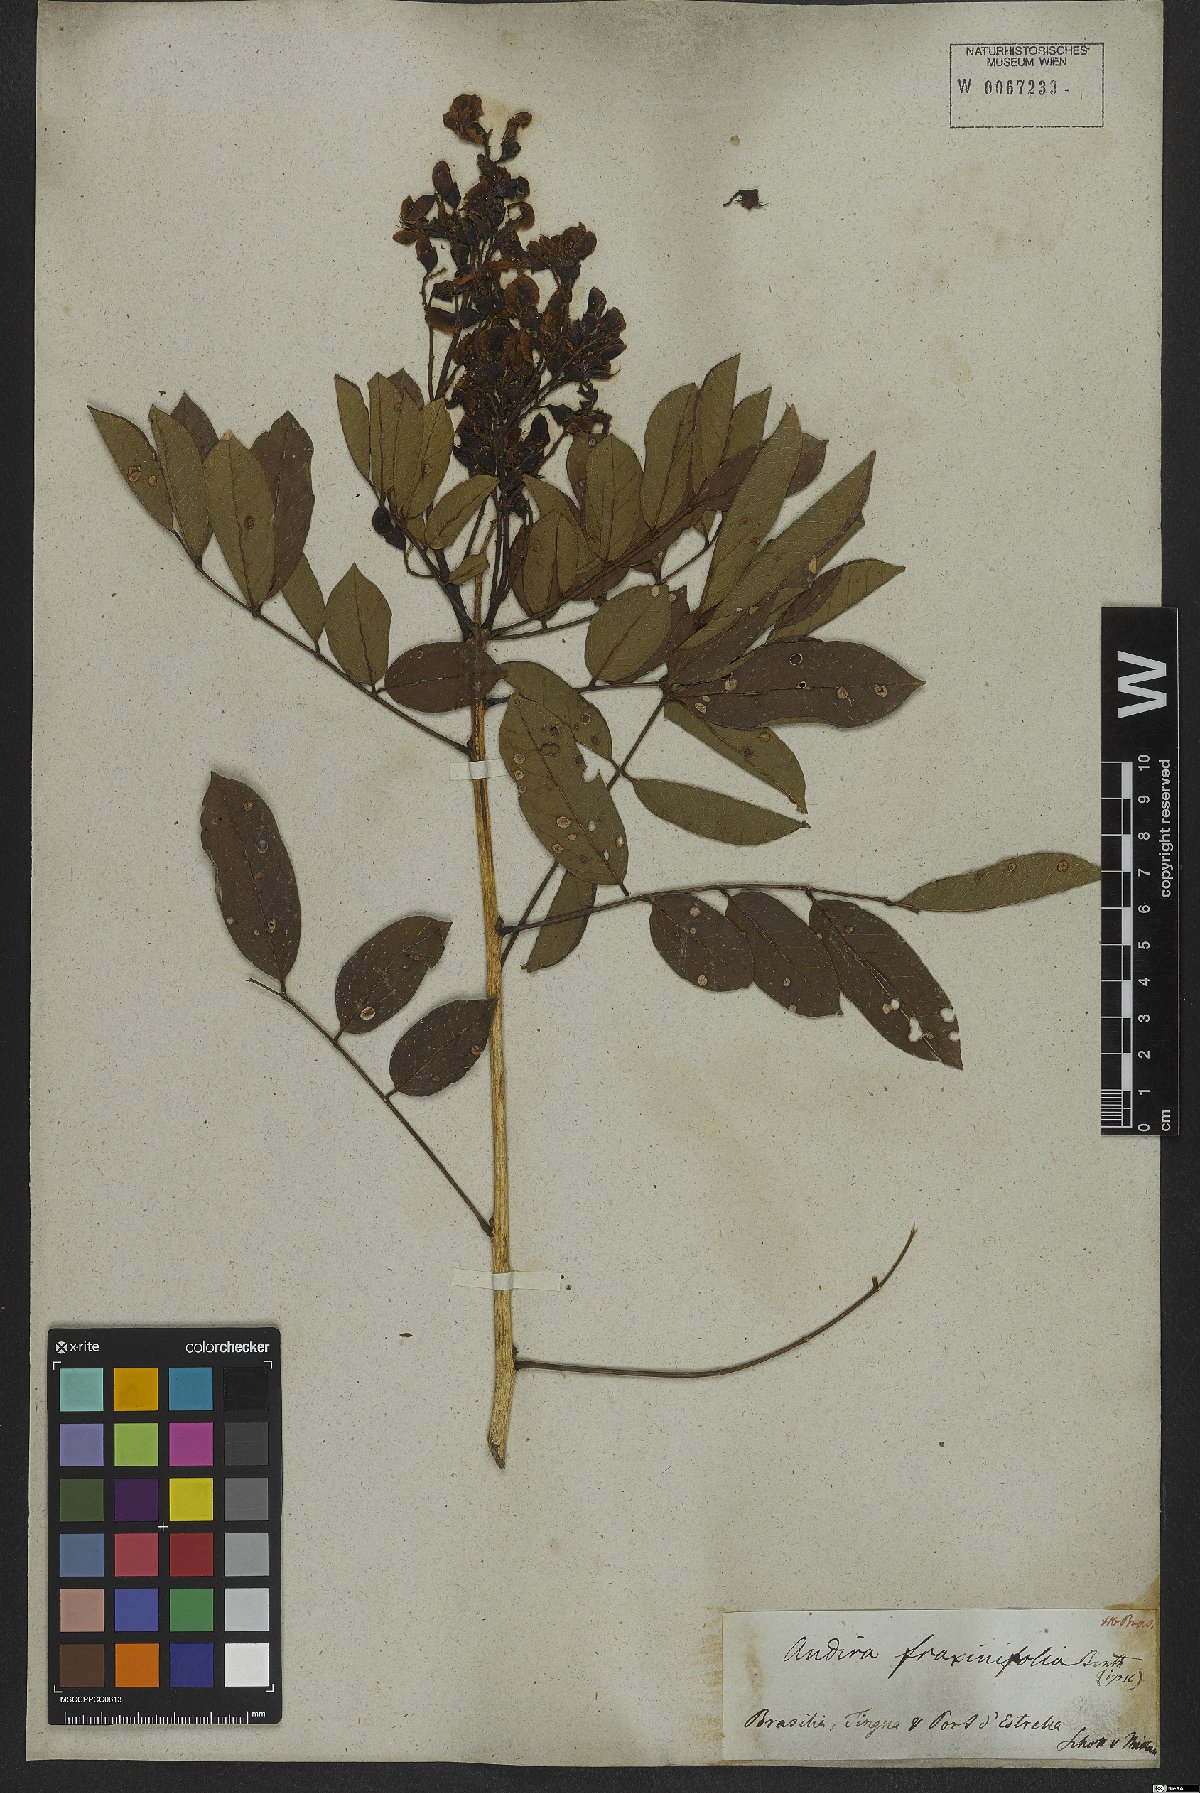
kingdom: Plantae
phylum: Tracheophyta
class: Magnoliopsida
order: Fabales
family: Fabaceae
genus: Andira
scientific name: Andira fraxinifolia
